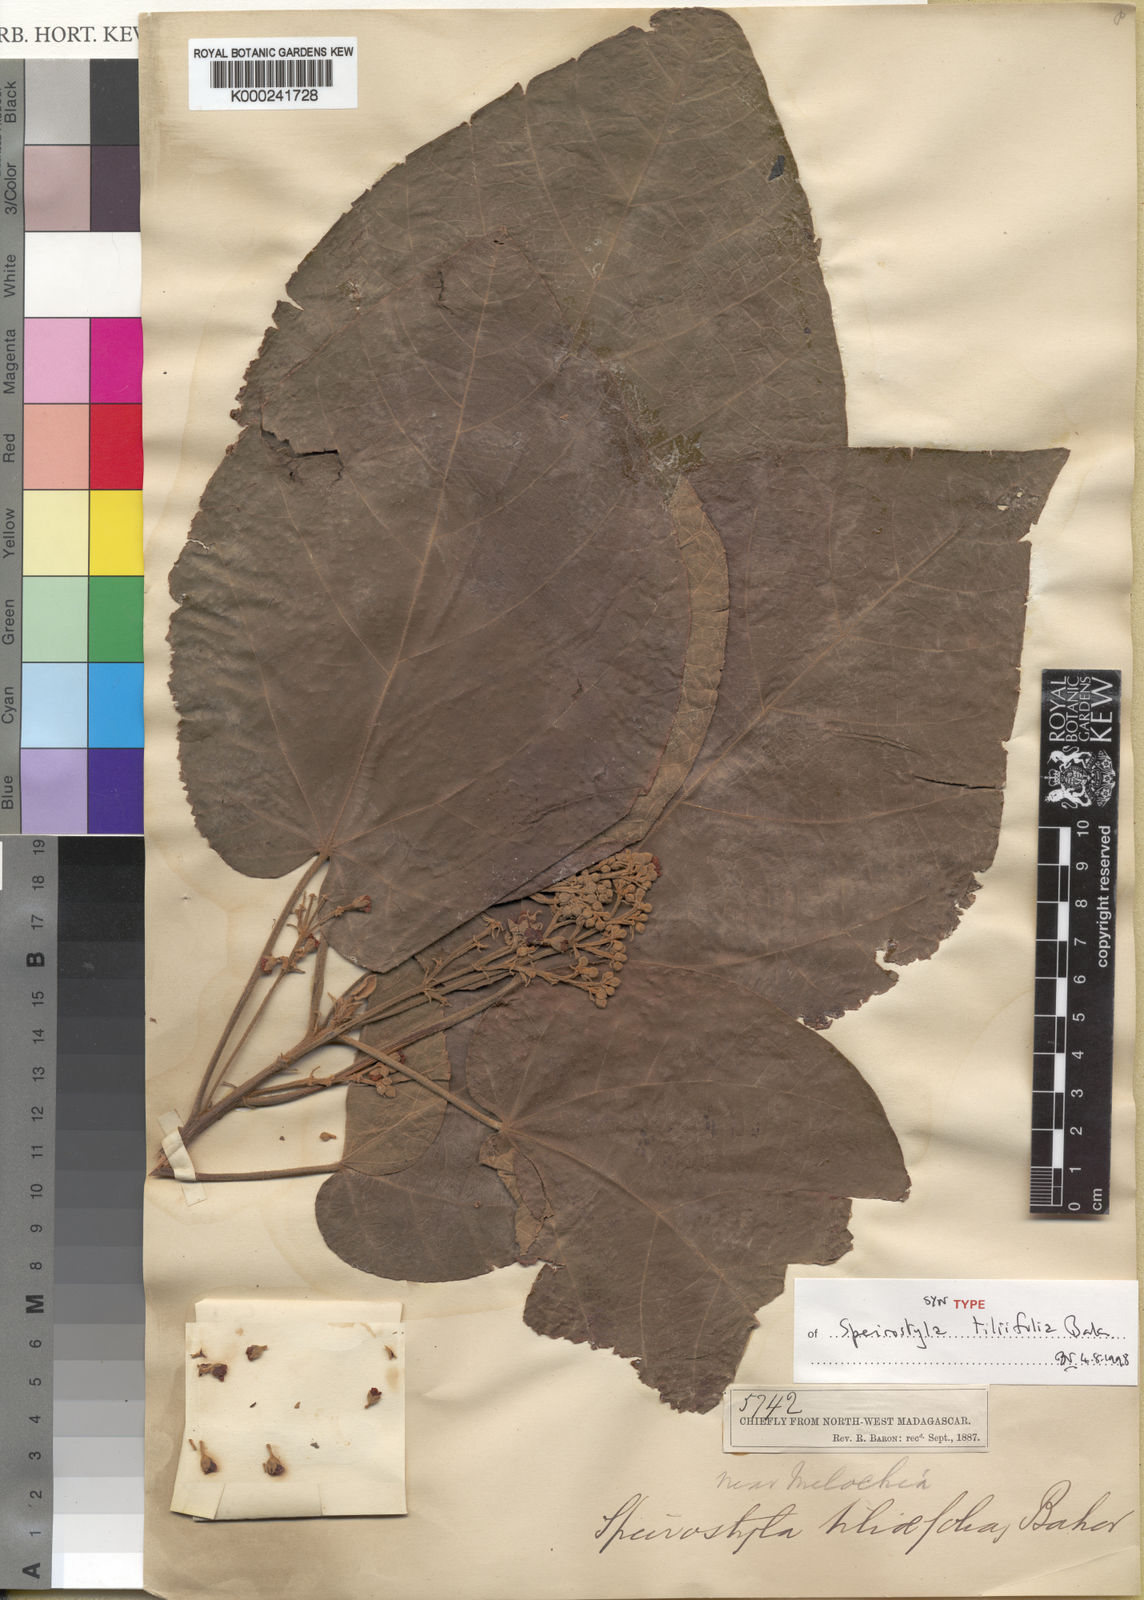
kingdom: Plantae
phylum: Tracheophyta
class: Magnoliopsida
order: Malvales
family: Malvaceae
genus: Christiana
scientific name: Christiana africana
